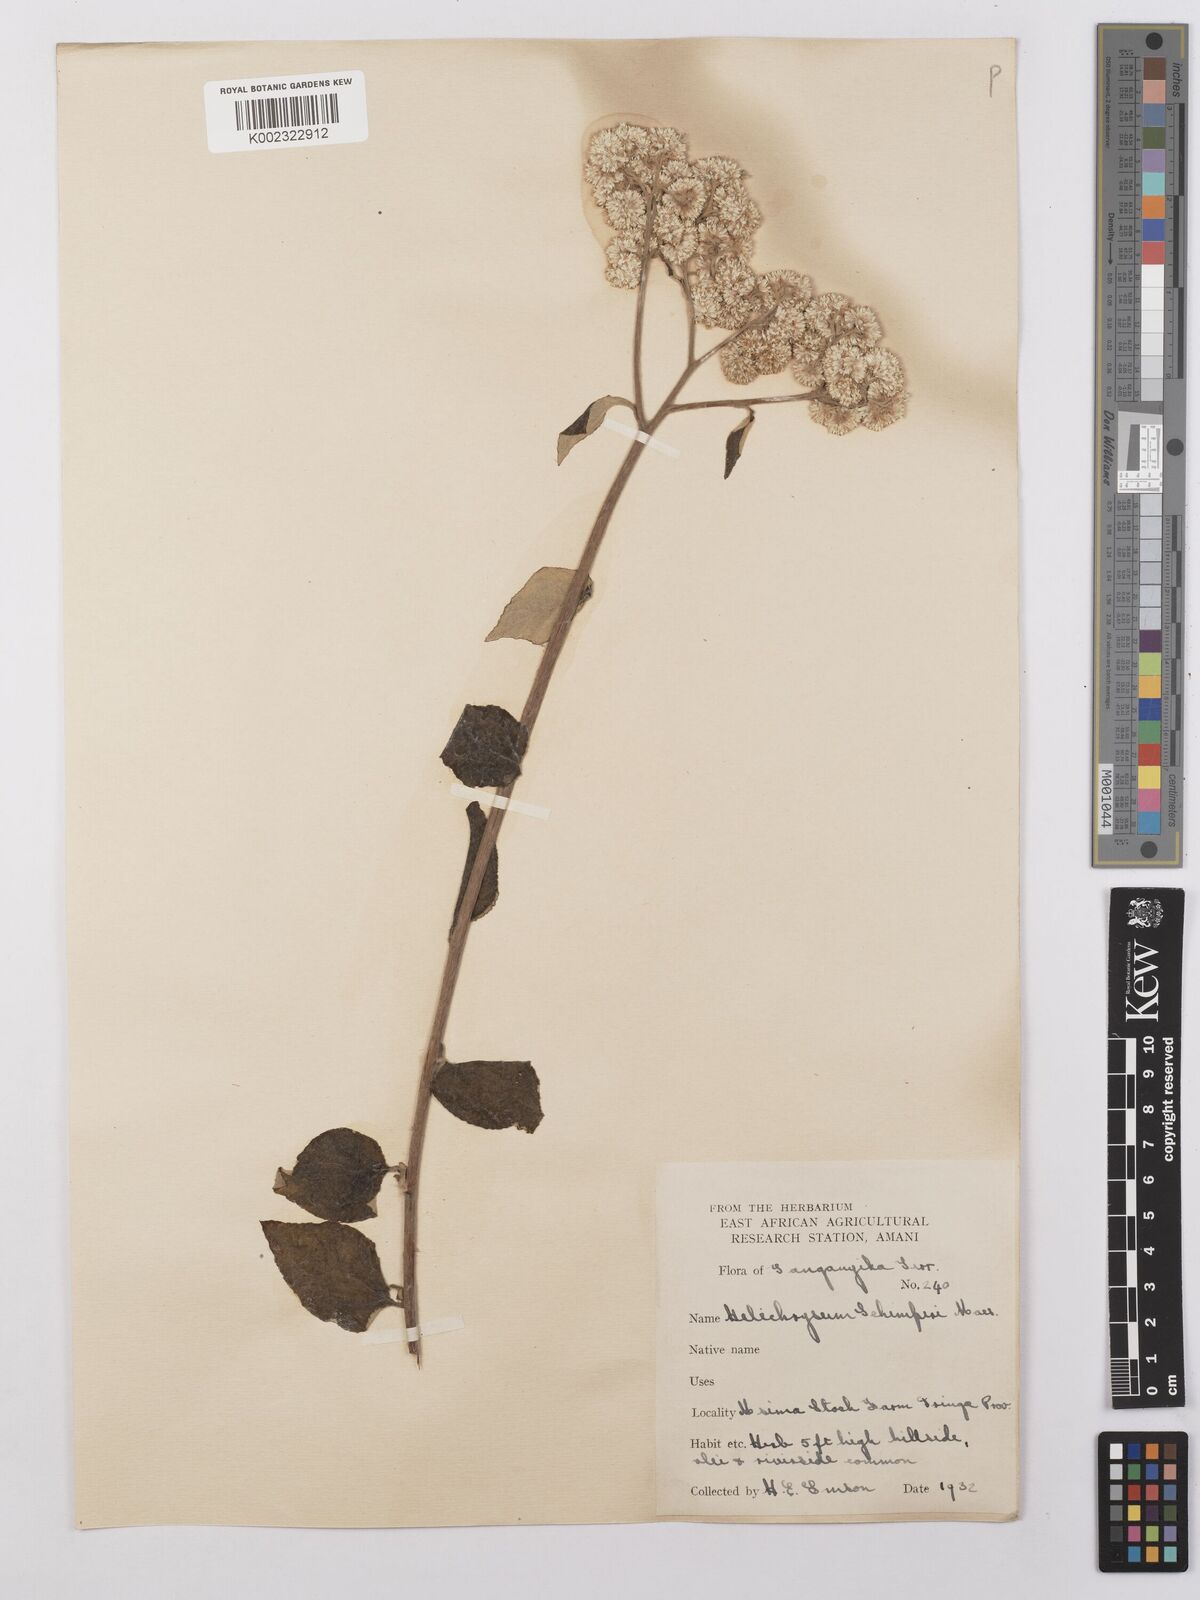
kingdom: Plantae
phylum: Tracheophyta
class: Magnoliopsida
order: Asterales
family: Asteraceae
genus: Helichrysum
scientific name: Helichrysum schimperi
